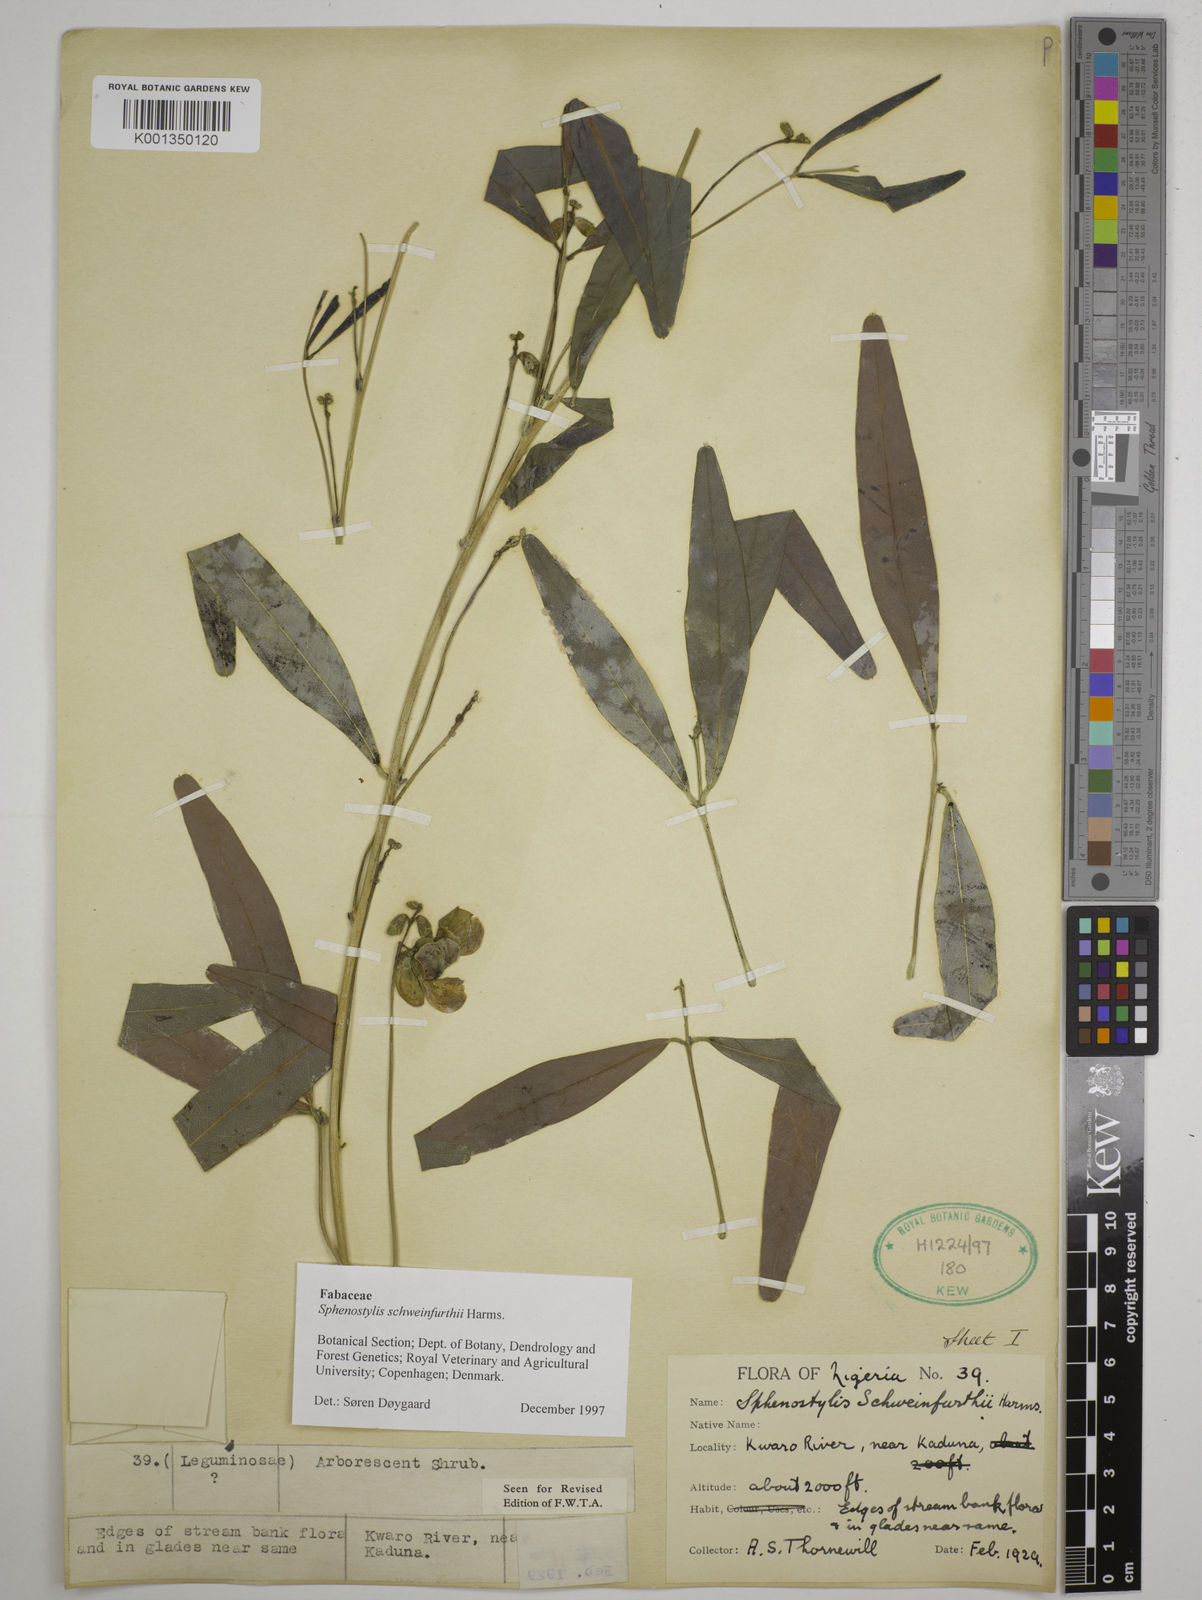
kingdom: Plantae
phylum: Tracheophyta
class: Magnoliopsida
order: Fabales
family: Fabaceae
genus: Sphenostylis
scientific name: Sphenostylis schweinfurthii
